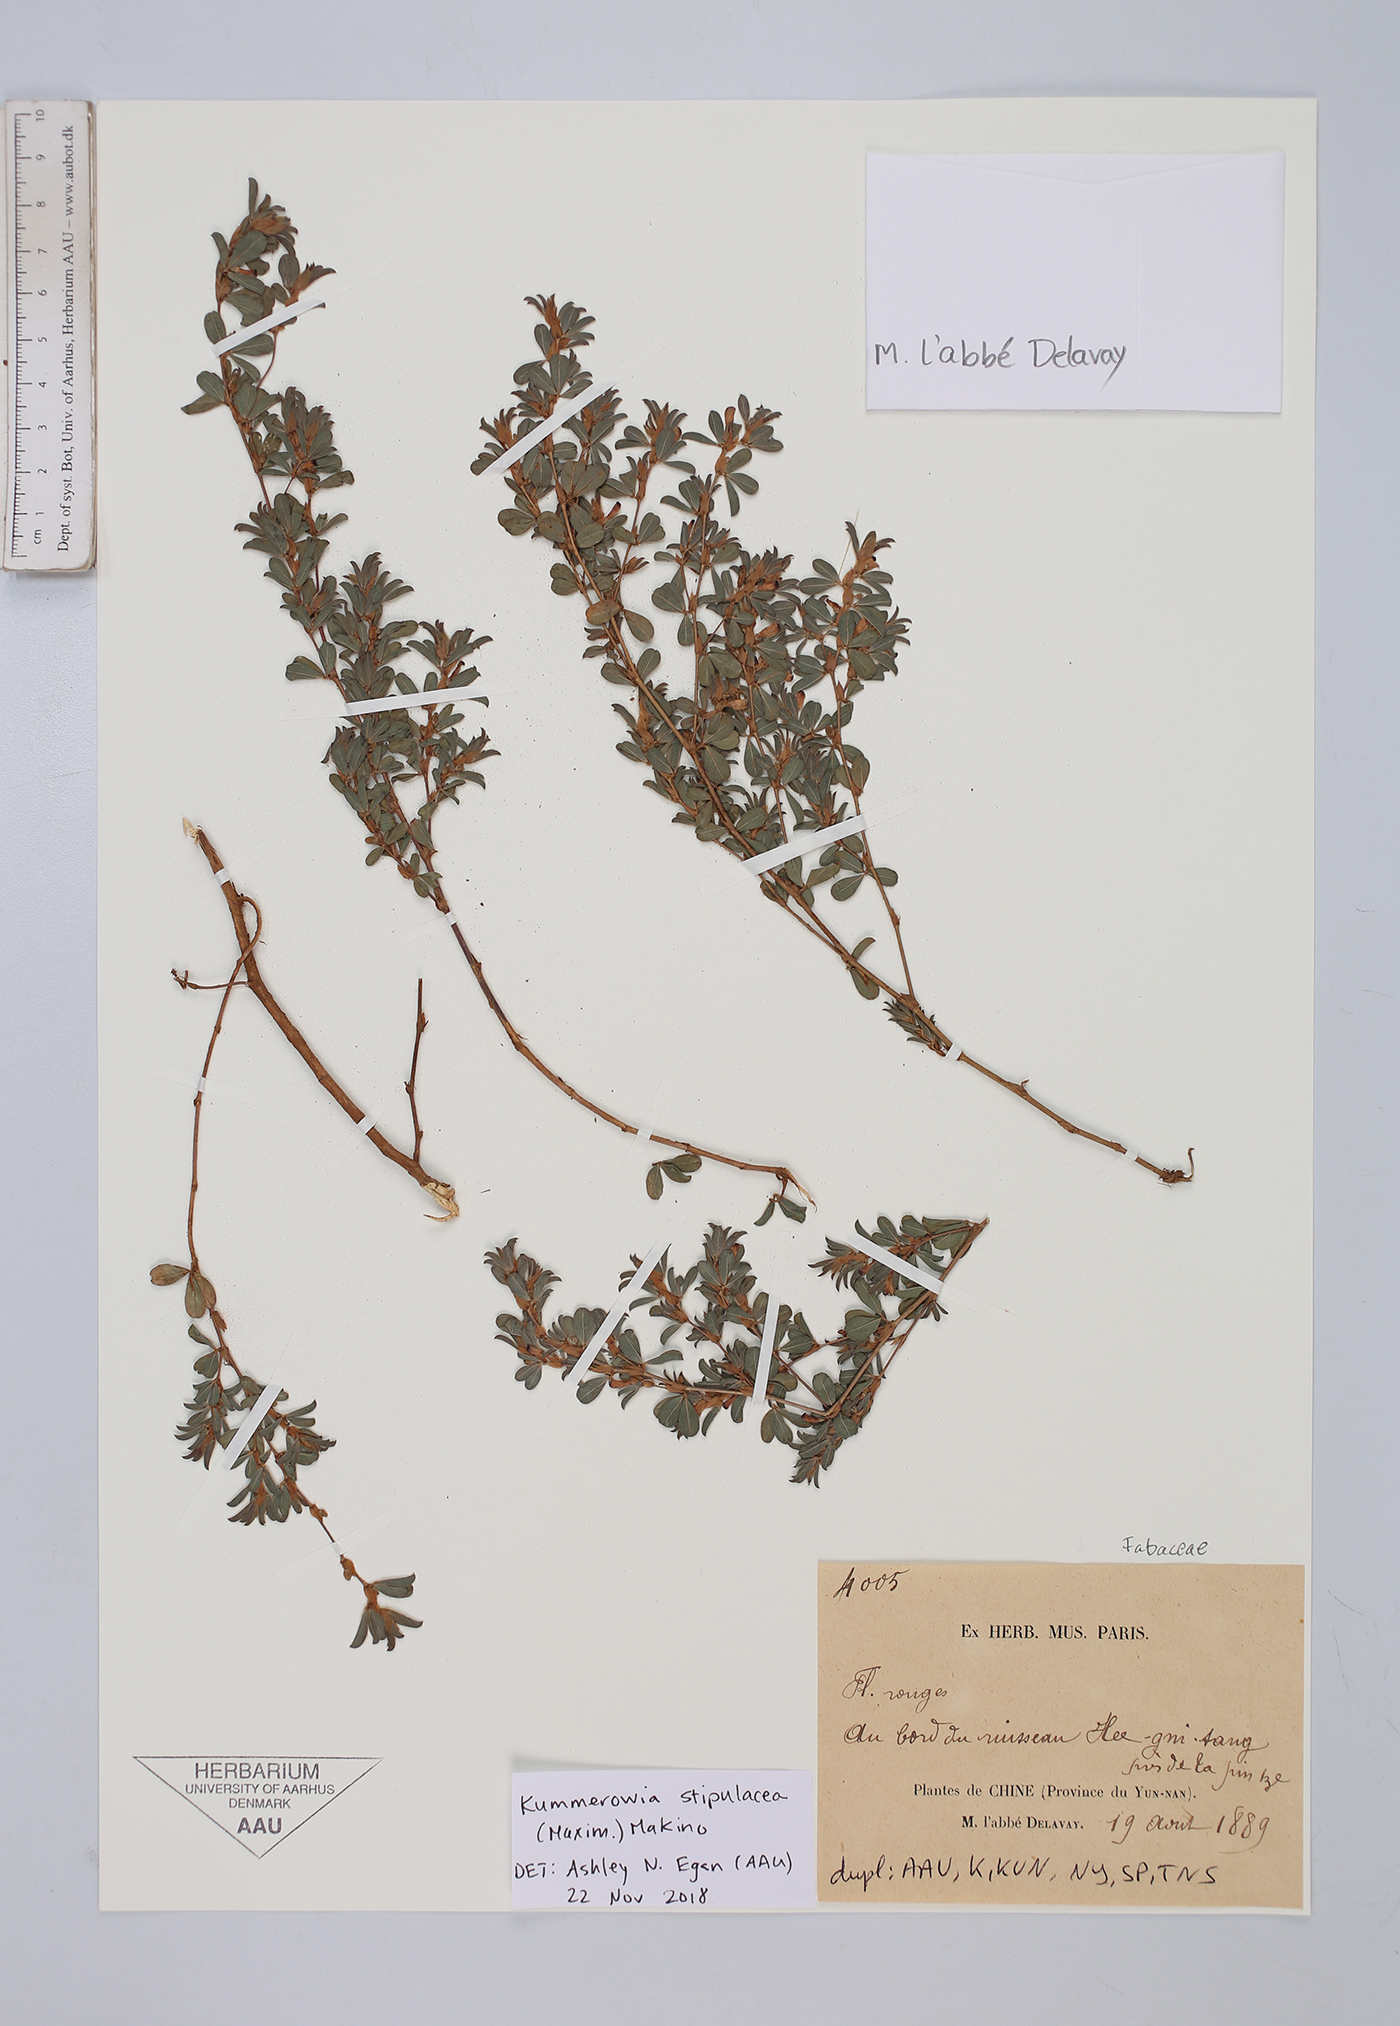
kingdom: Plantae
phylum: Tracheophyta
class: Magnoliopsida
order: Fabales
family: Fabaceae
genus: Kummerowia
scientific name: Kummerowia stipulacea
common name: Korean clover
